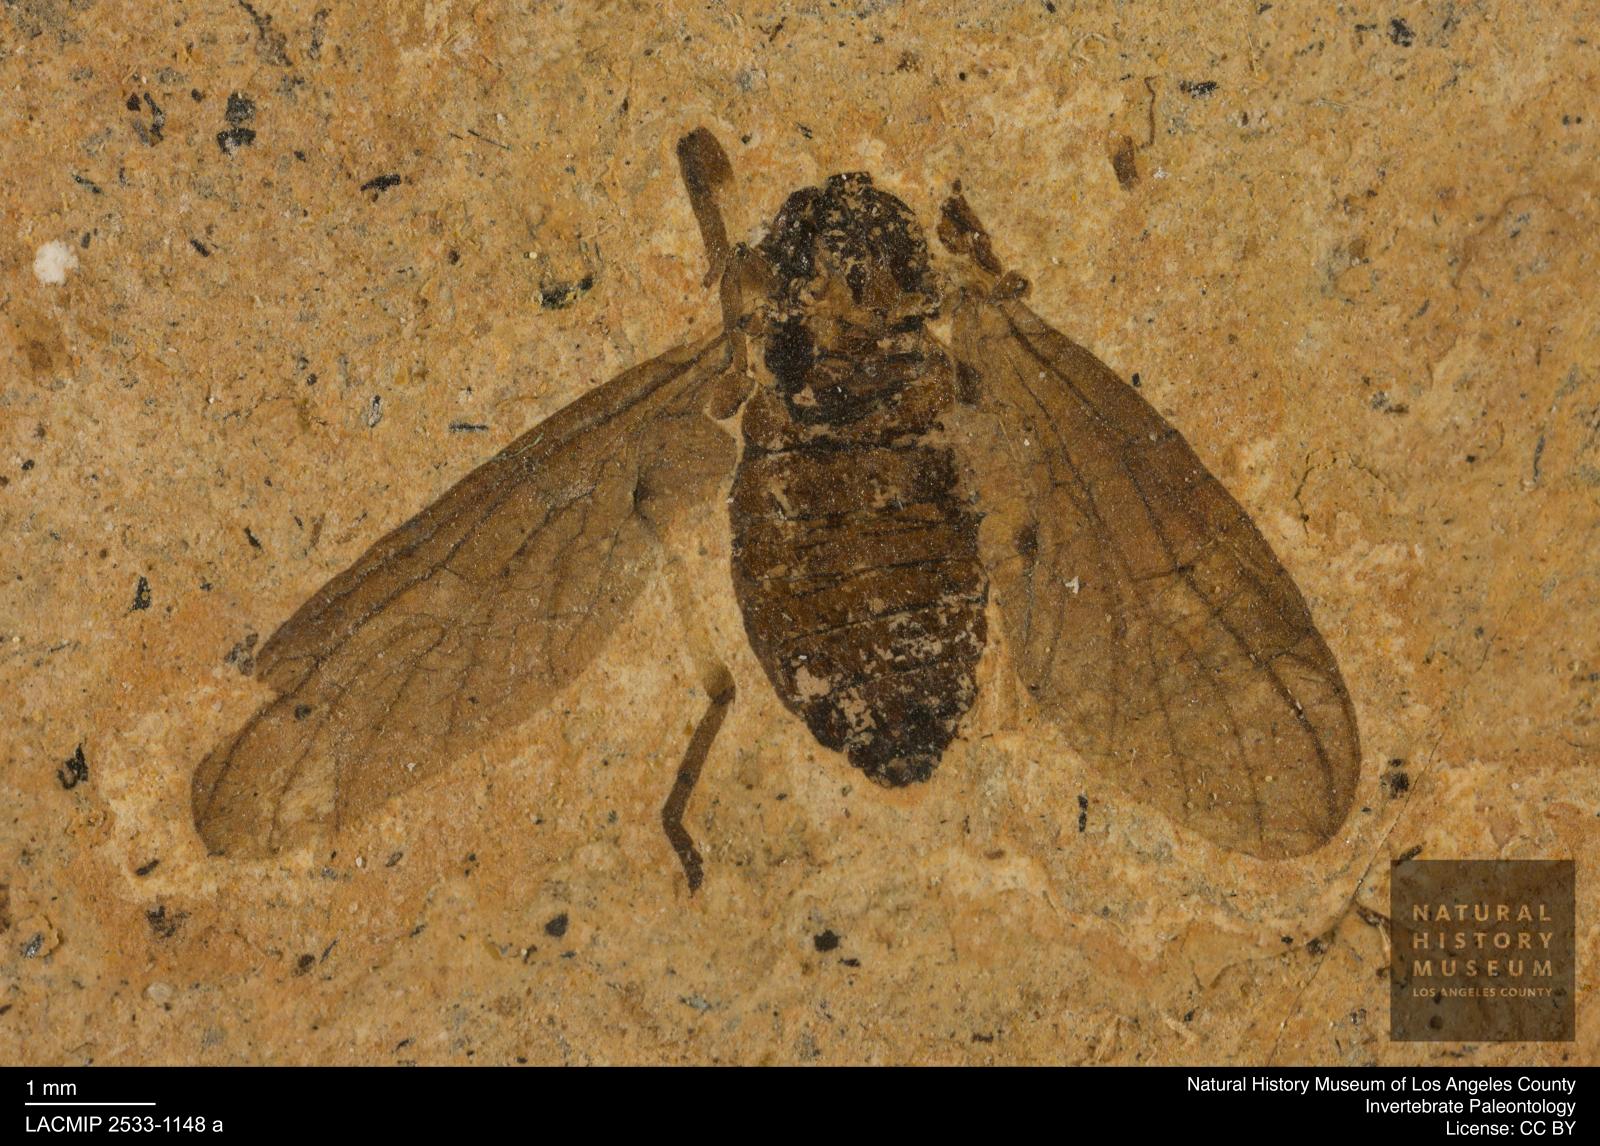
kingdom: Animalia
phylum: Arthropoda
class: Insecta
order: Diptera
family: Bibionidae
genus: Plecia
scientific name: Plecia stygia
